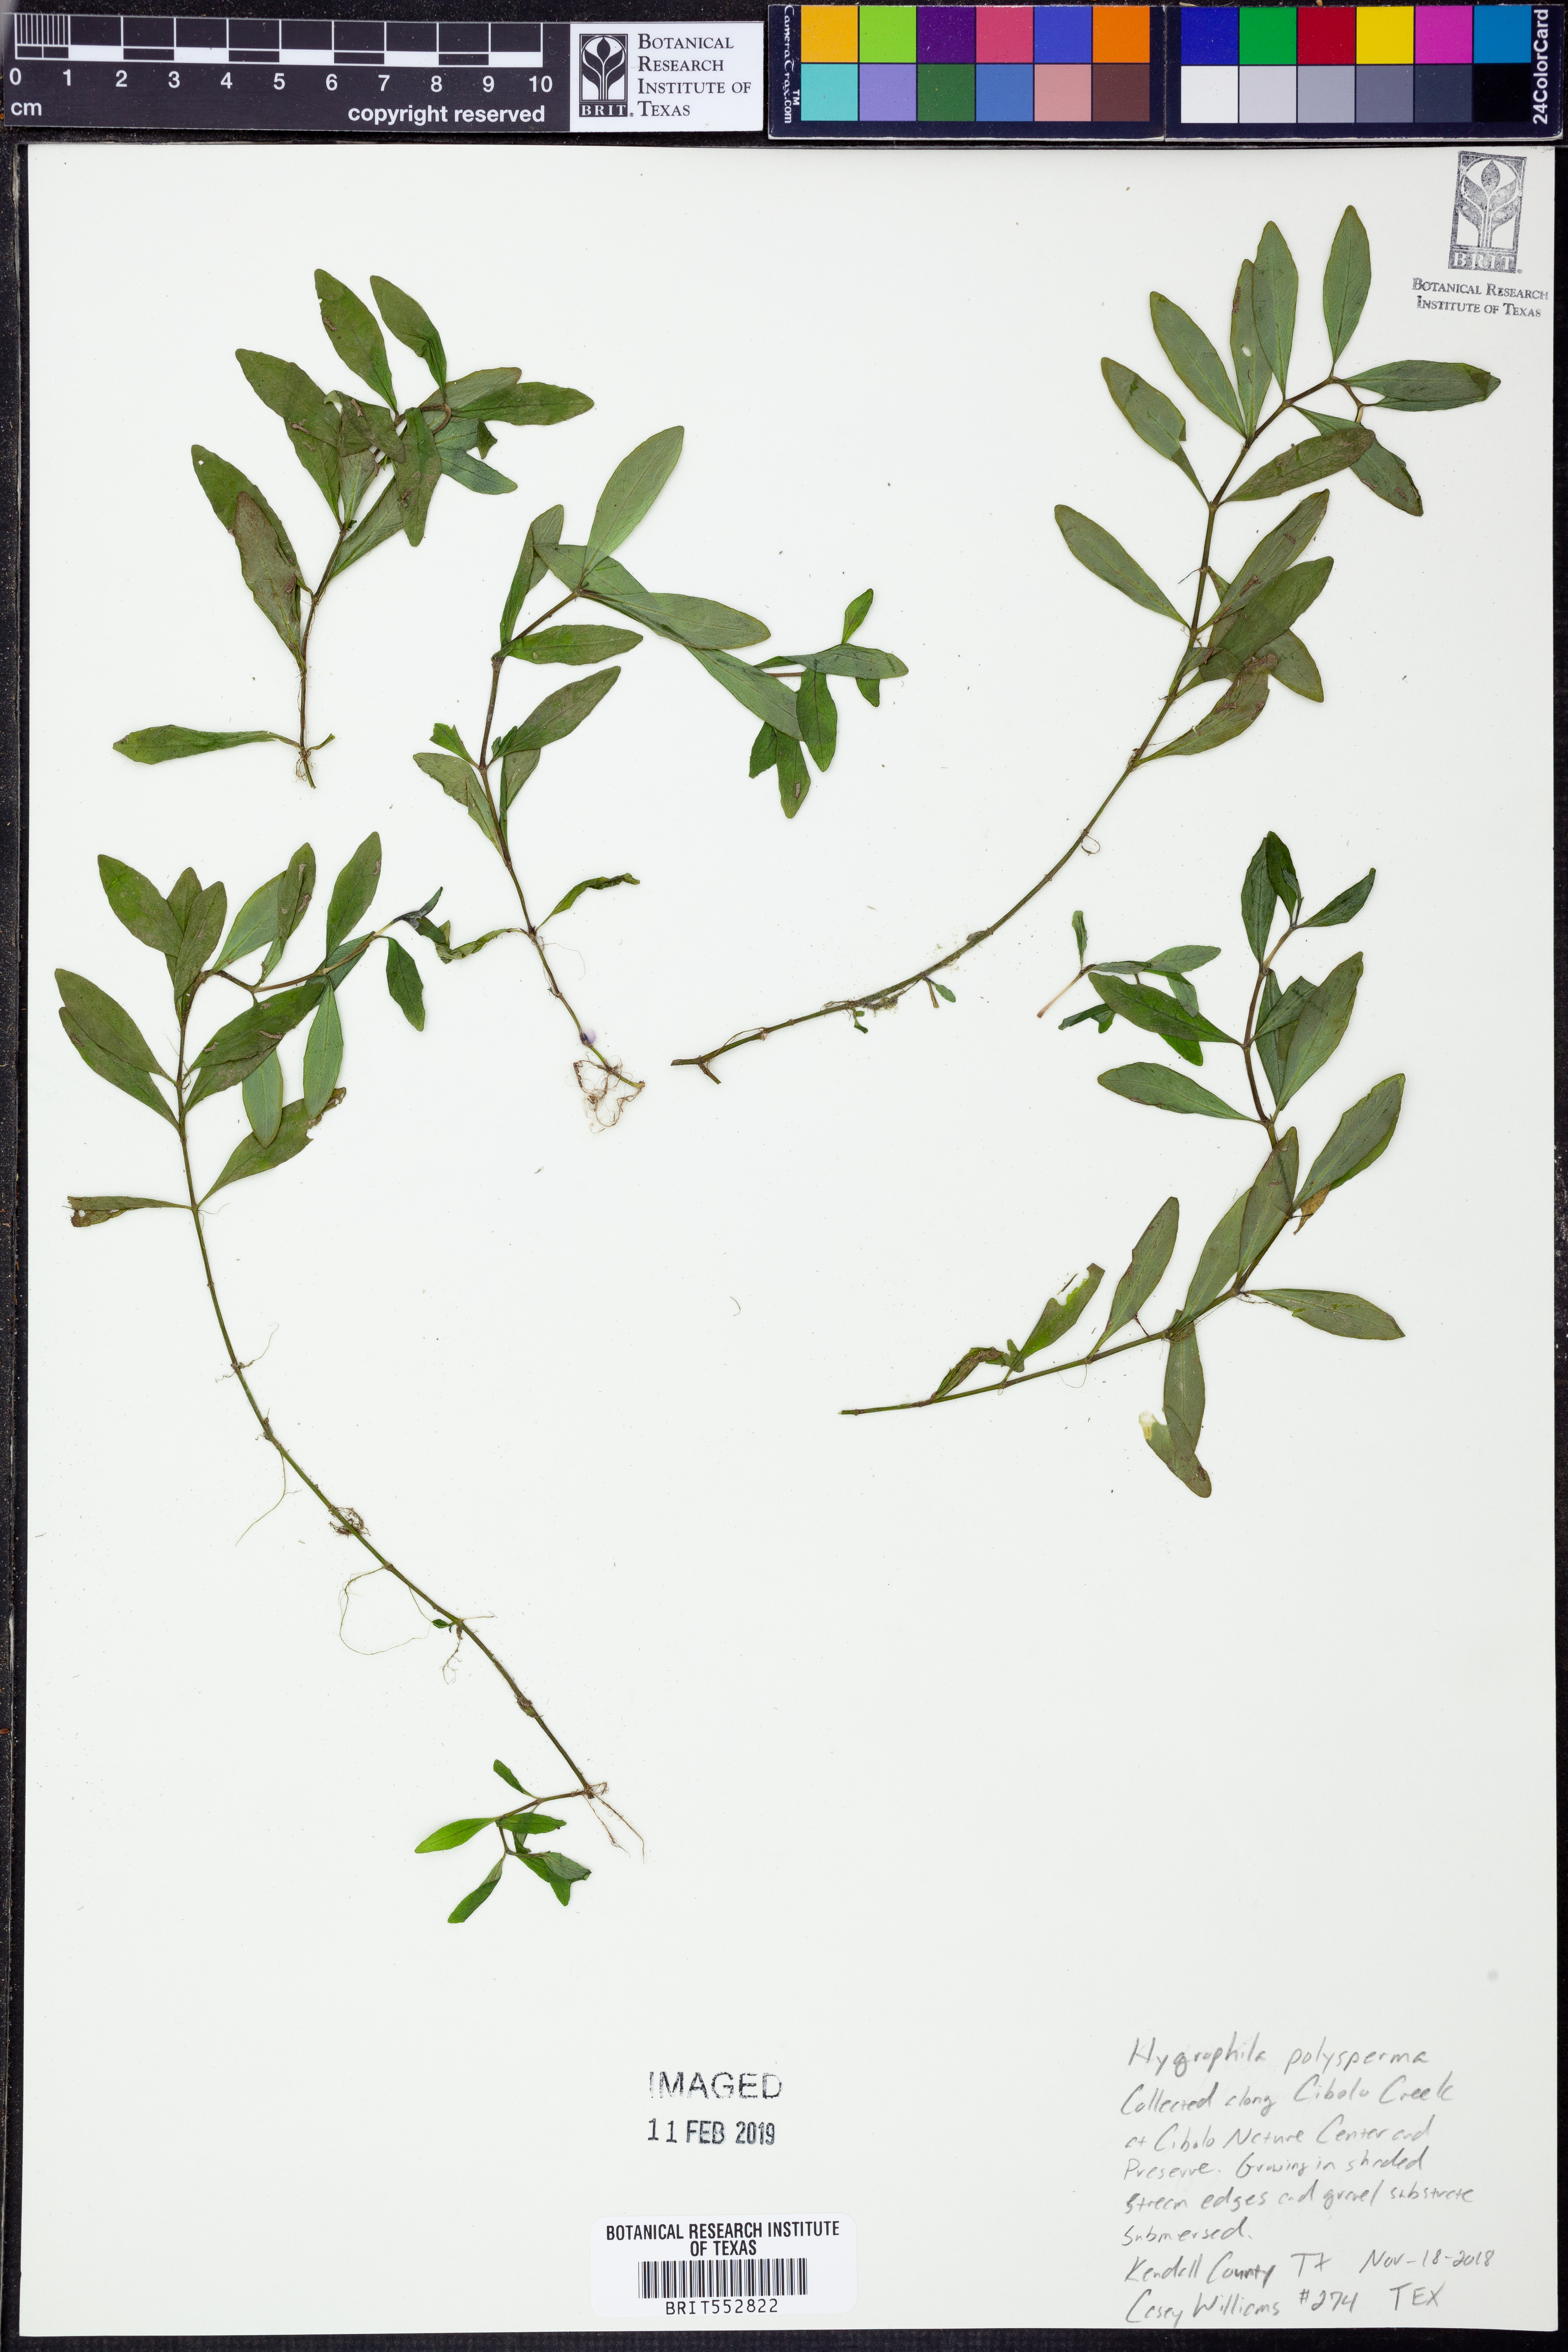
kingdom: Plantae
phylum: Tracheophyta
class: Magnoliopsida
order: Lamiales
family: Acanthaceae
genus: Hygrophila
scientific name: Hygrophila polysperma
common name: Indian swampweed
